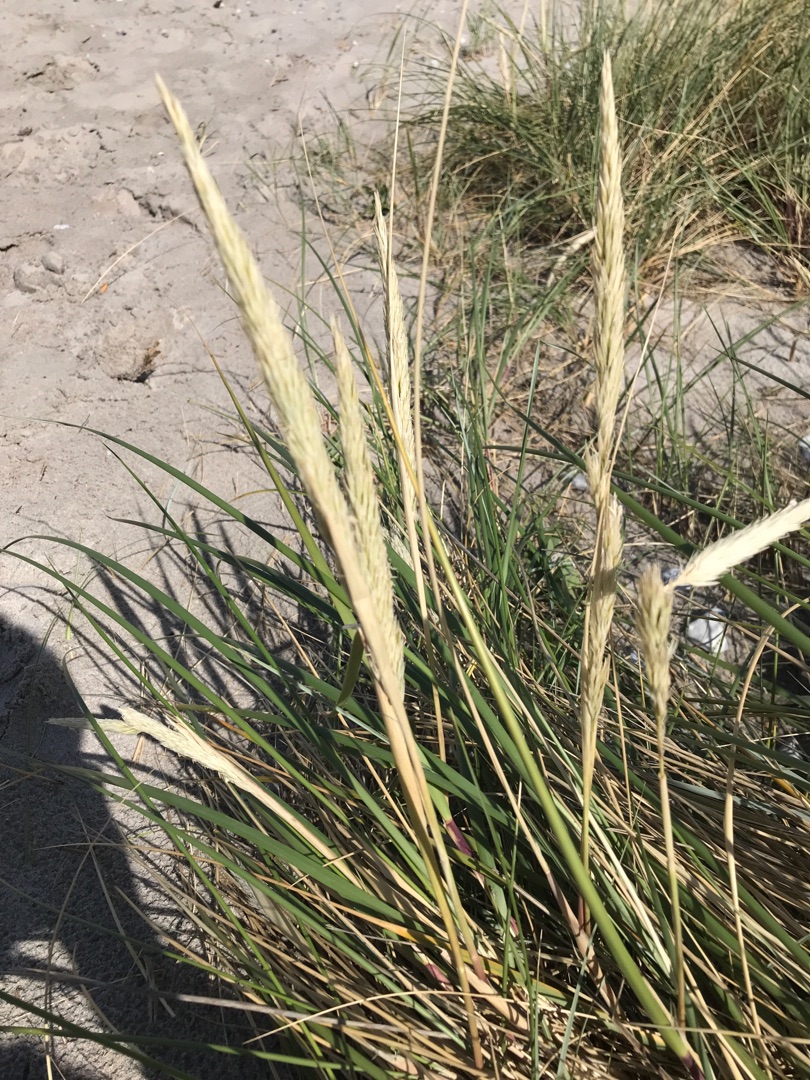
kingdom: Plantae
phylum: Tracheophyta
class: Liliopsida
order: Poales
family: Poaceae
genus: Calamagrostis
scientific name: Calamagrostis arenaria
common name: Sand-hjælme
